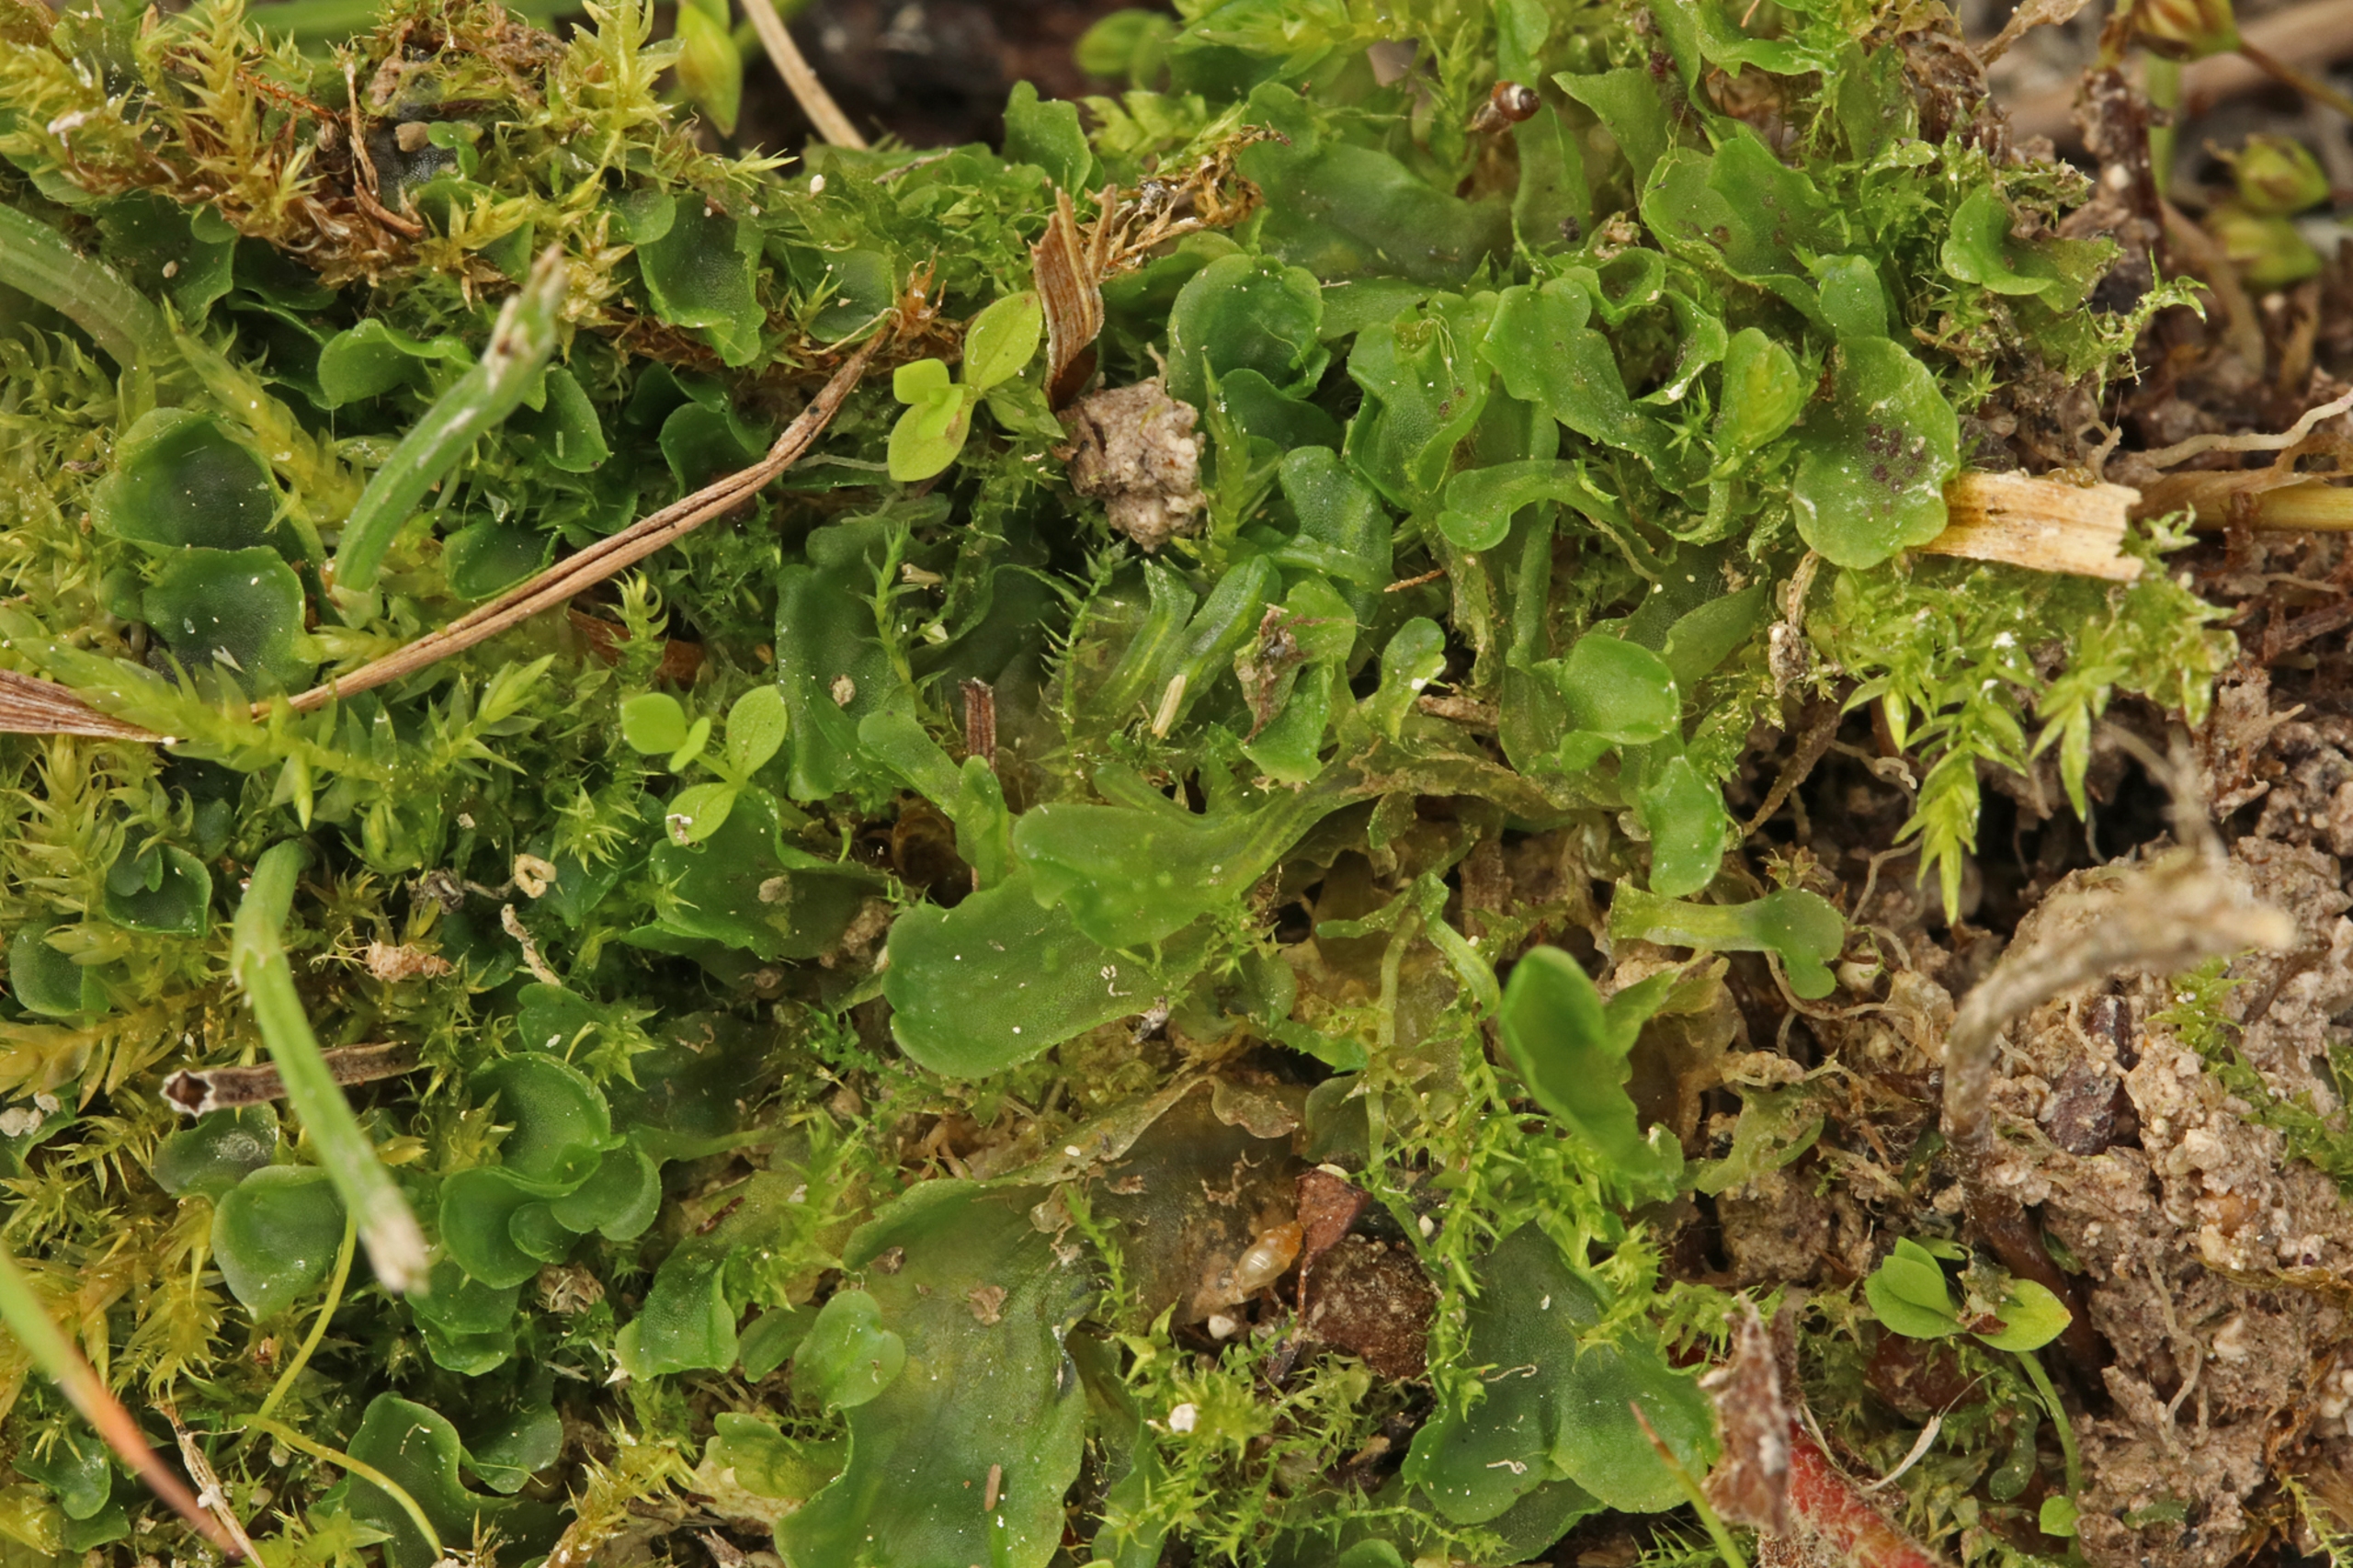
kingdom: Plantae
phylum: Marchantiophyta
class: Jungermanniopsida
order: Pelliales
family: Pelliaceae
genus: Apopellia
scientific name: Apopellia endiviifolia
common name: Fliget ribbeløv
